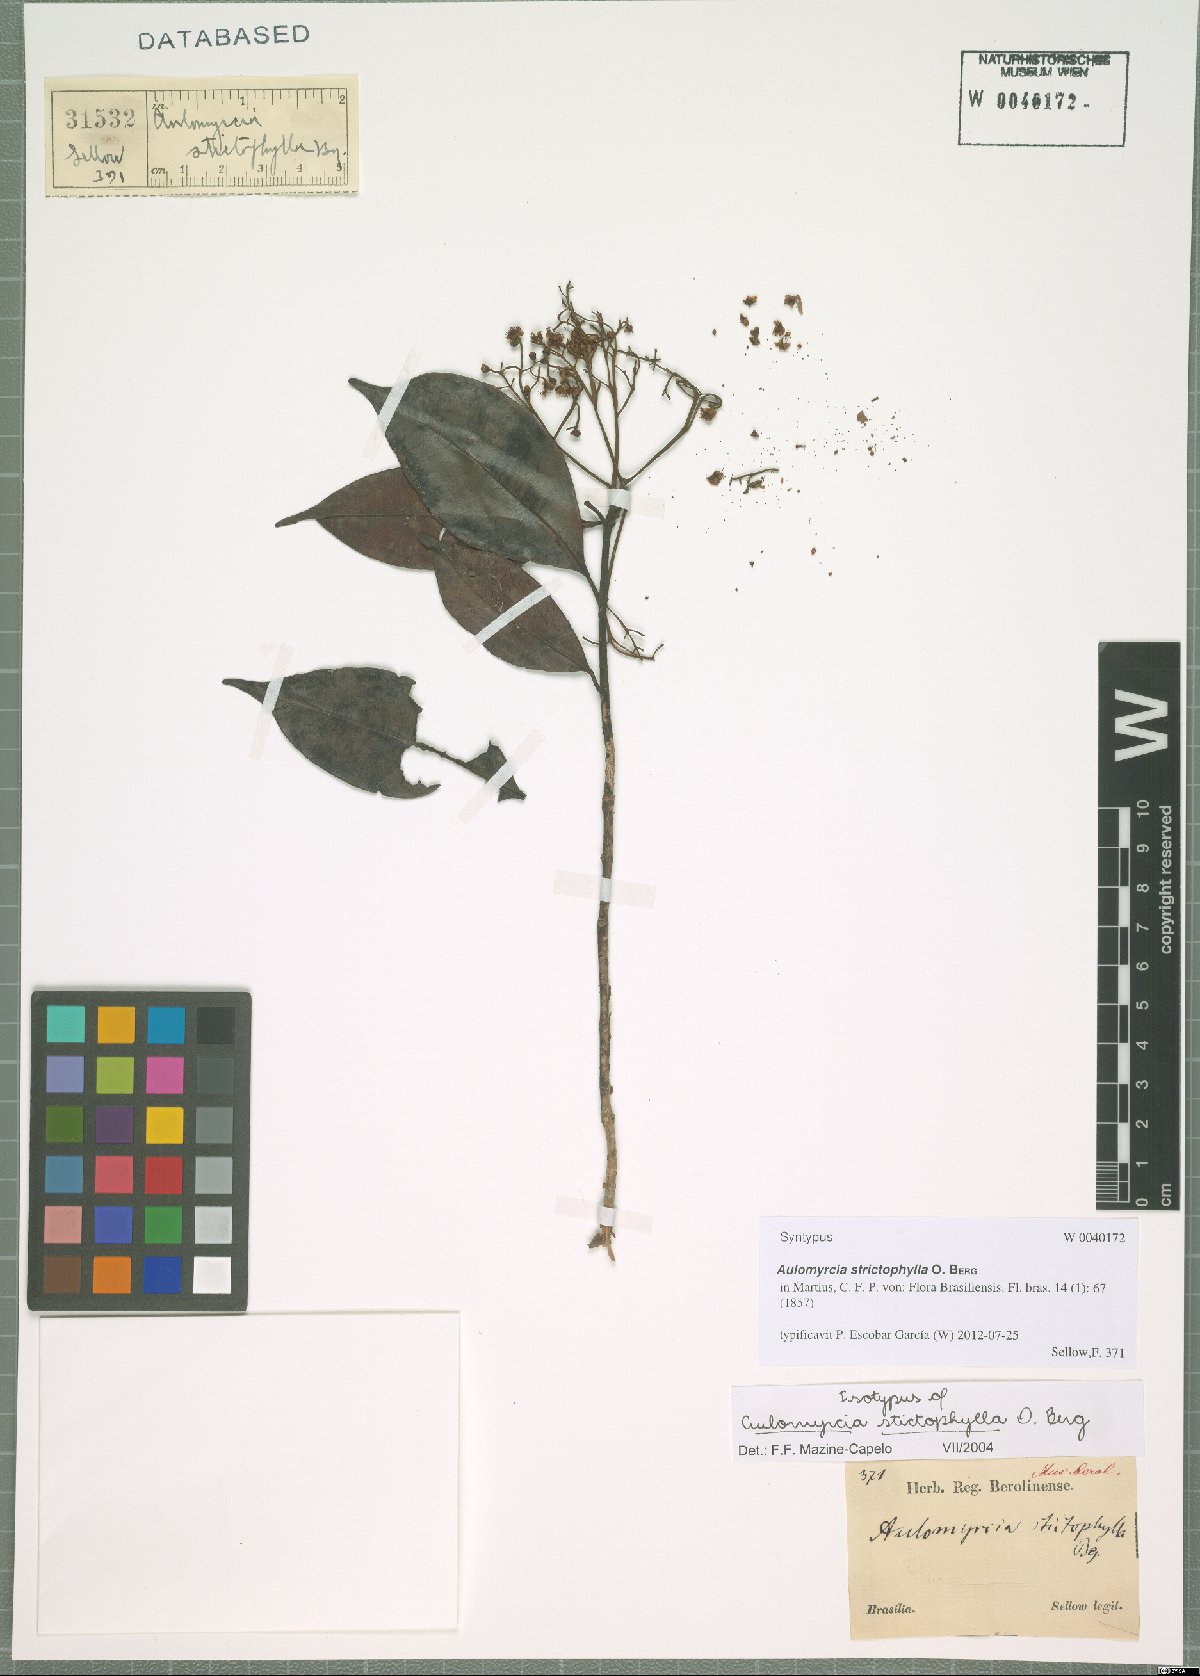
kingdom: Plantae
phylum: Tracheophyta
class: Magnoliopsida
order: Myrtales
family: Myrtaceae
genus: Myrcia
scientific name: Myrcia stictophylla
